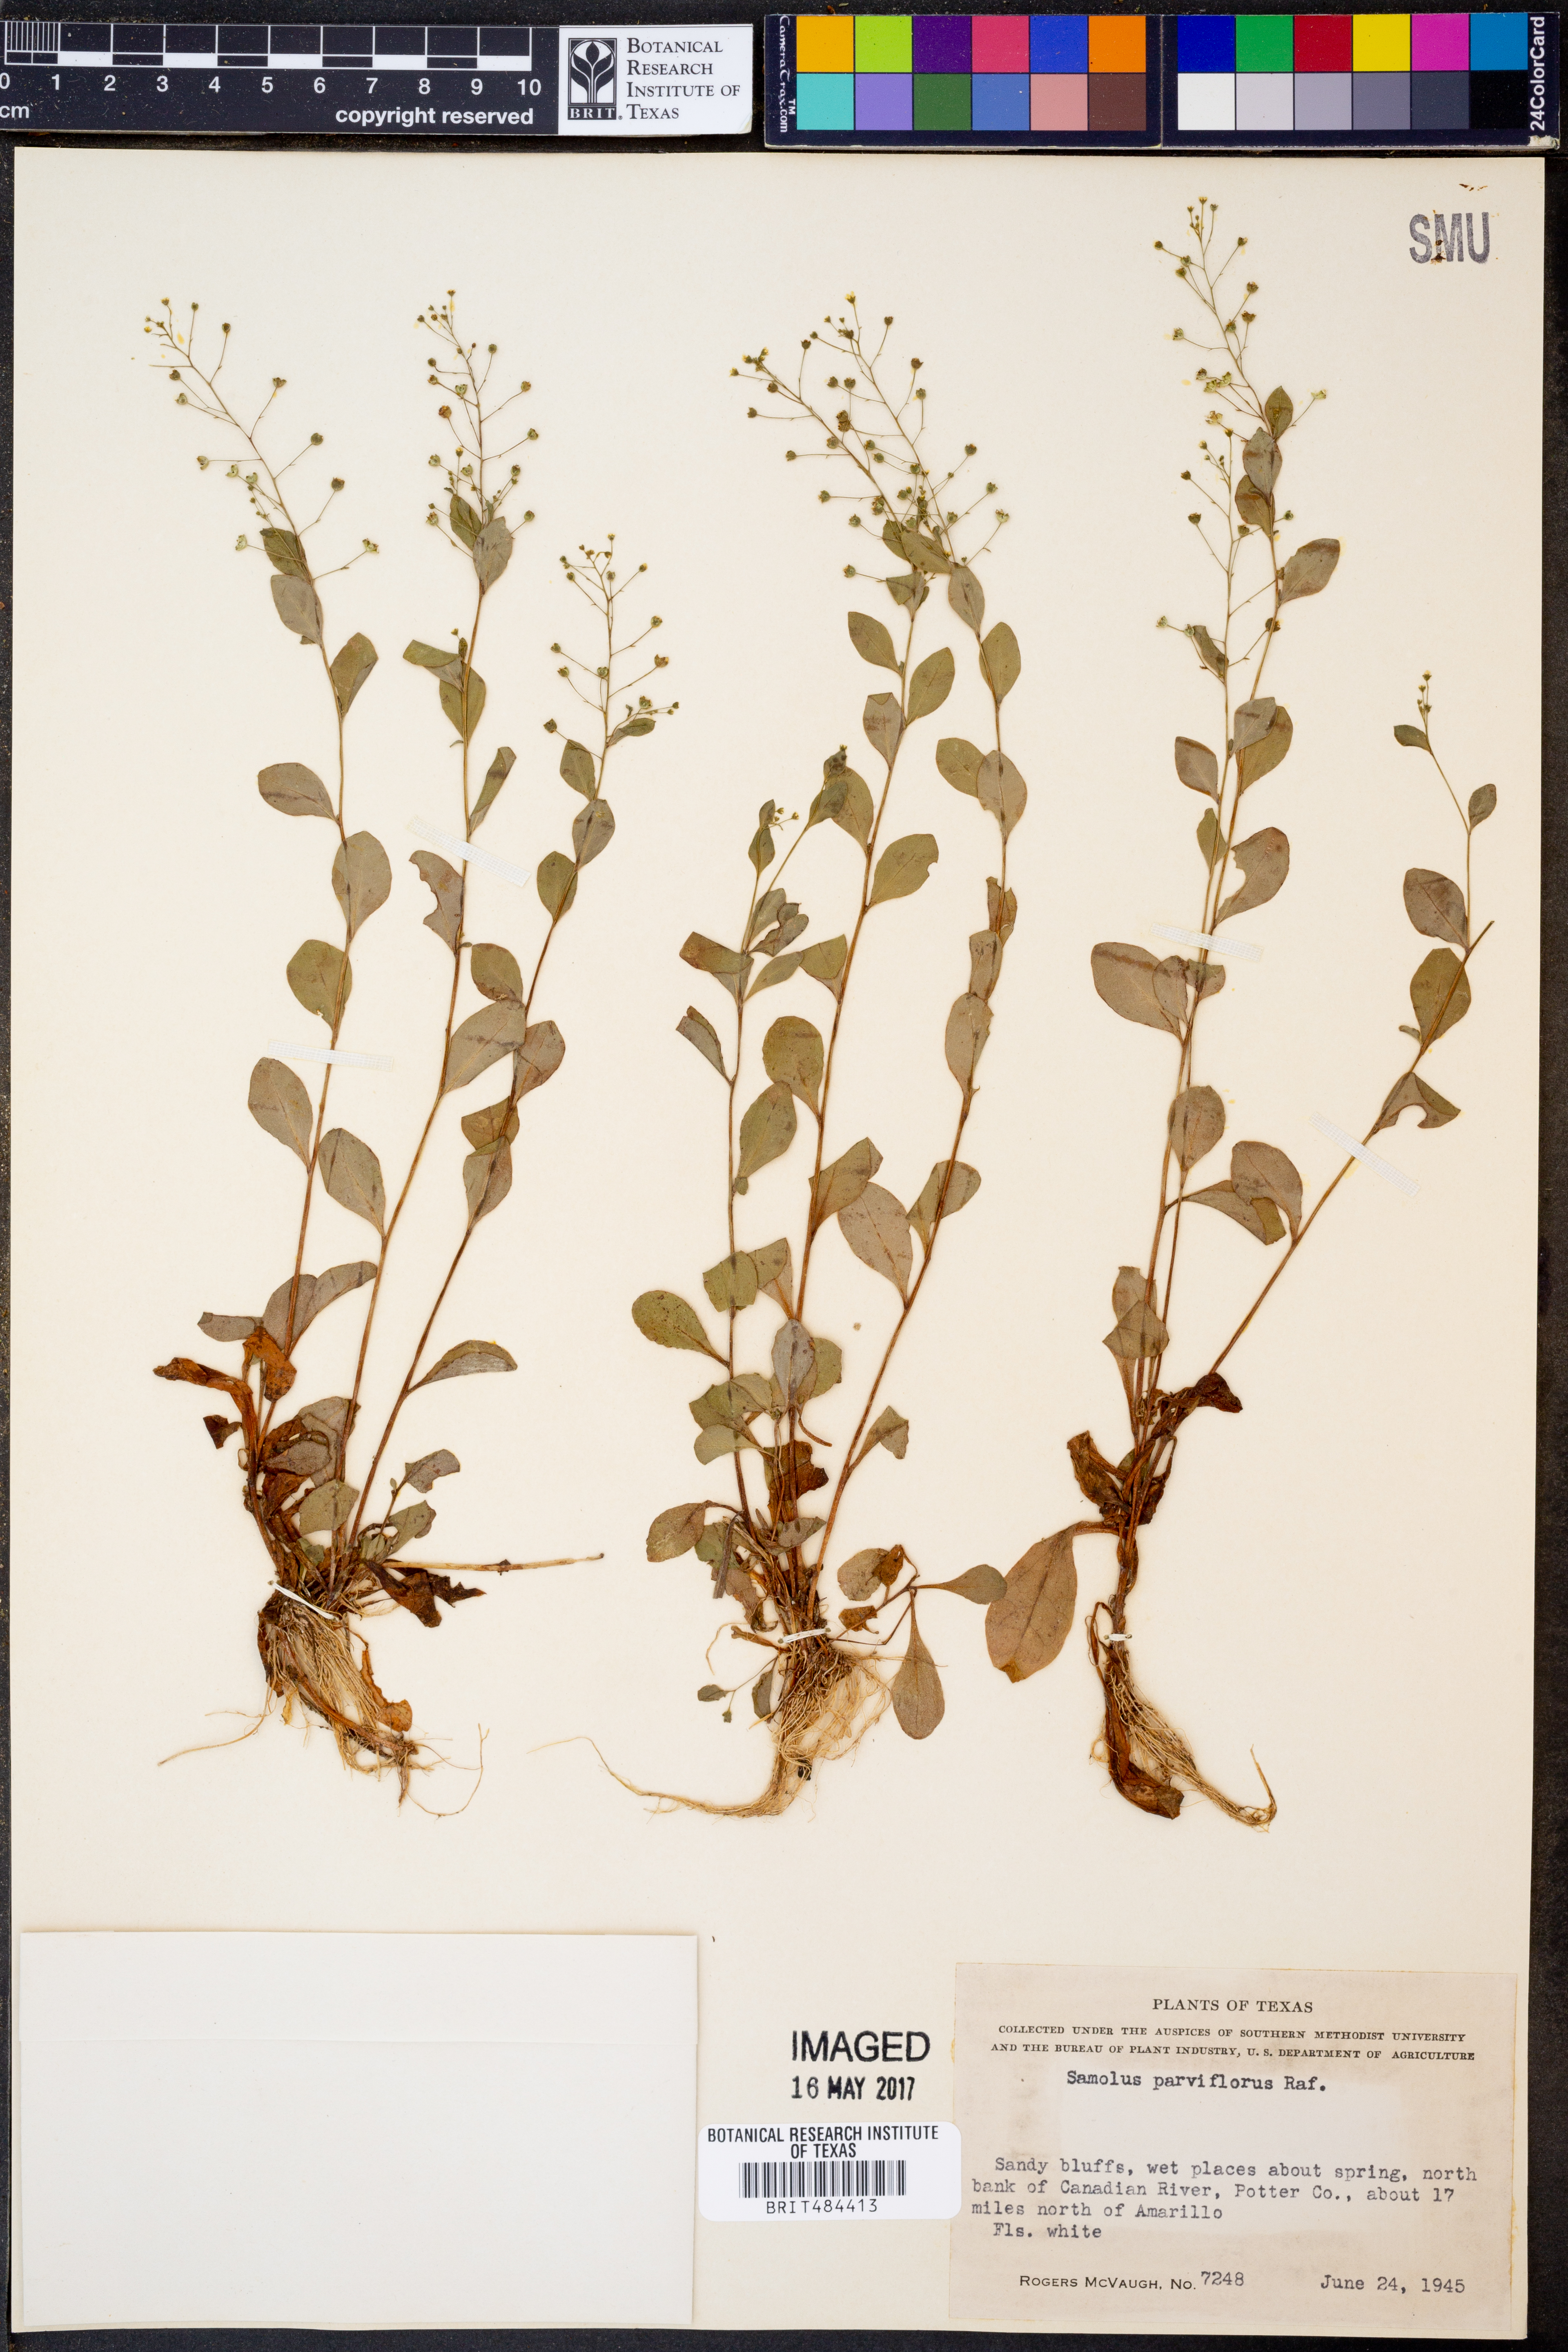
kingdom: Plantae
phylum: Tracheophyta
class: Magnoliopsida
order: Ericales
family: Primulaceae
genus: Samolus
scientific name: Samolus parviflorus
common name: False water pimpernel
